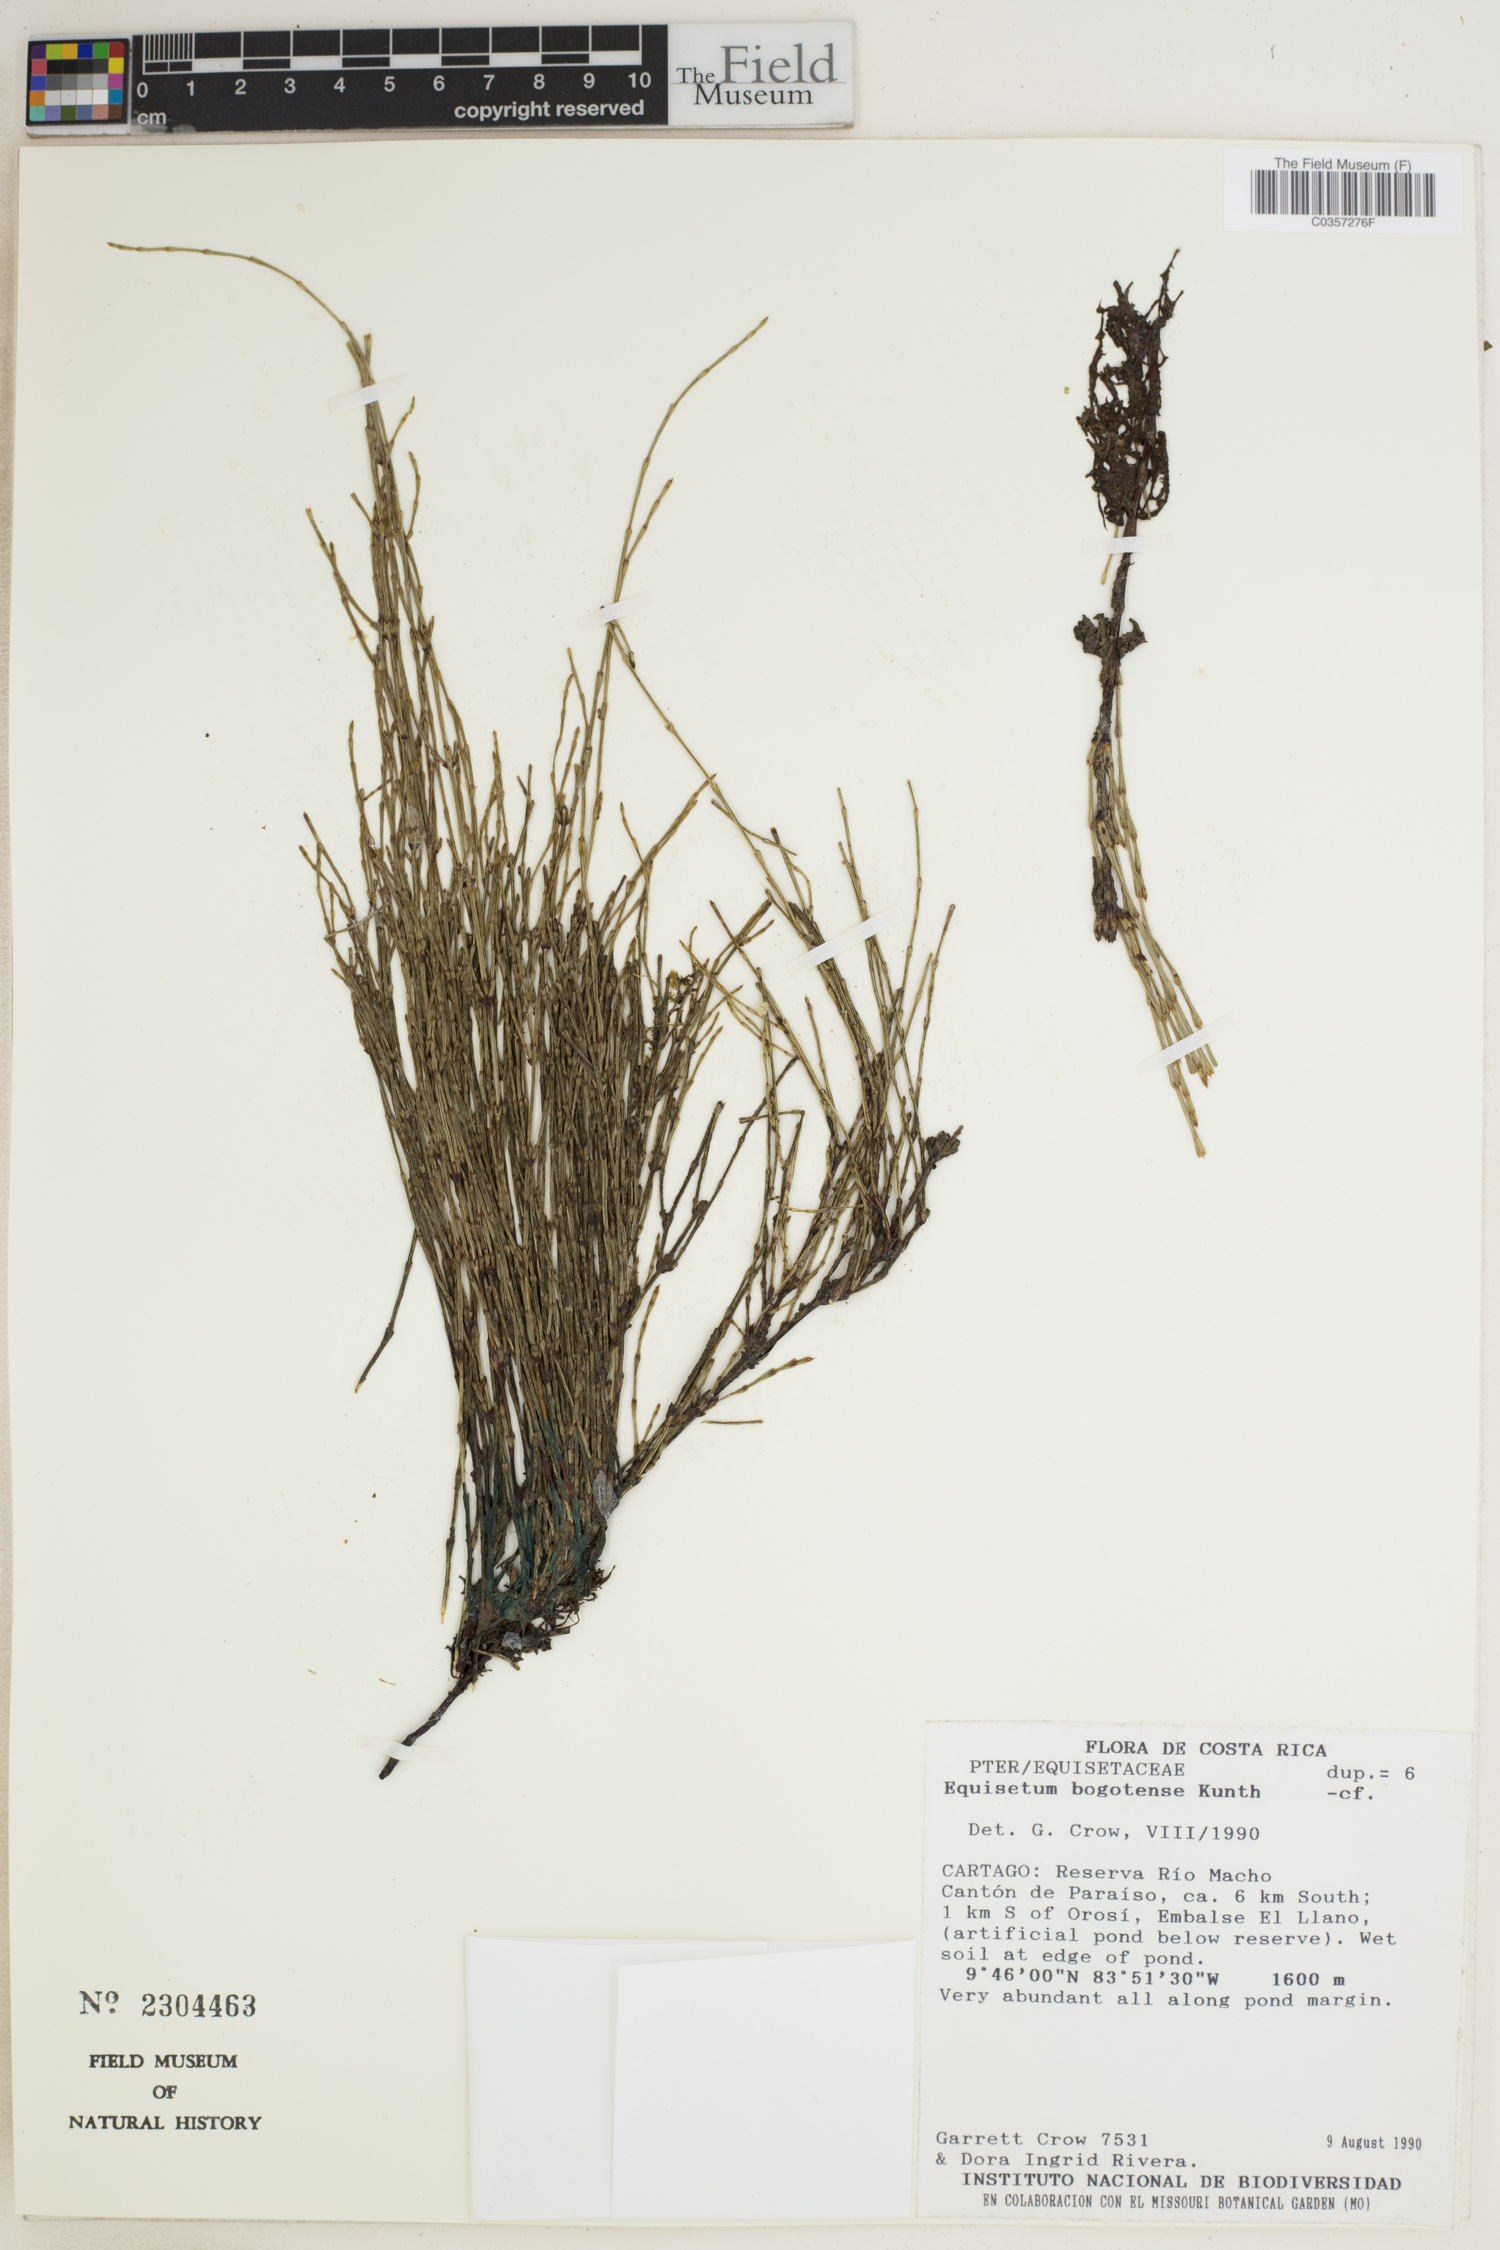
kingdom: Plantae
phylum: Tracheophyta
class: Polypodiopsida
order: Equisetales
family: Equisetaceae
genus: Equisetum
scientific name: Equisetum bogotense
